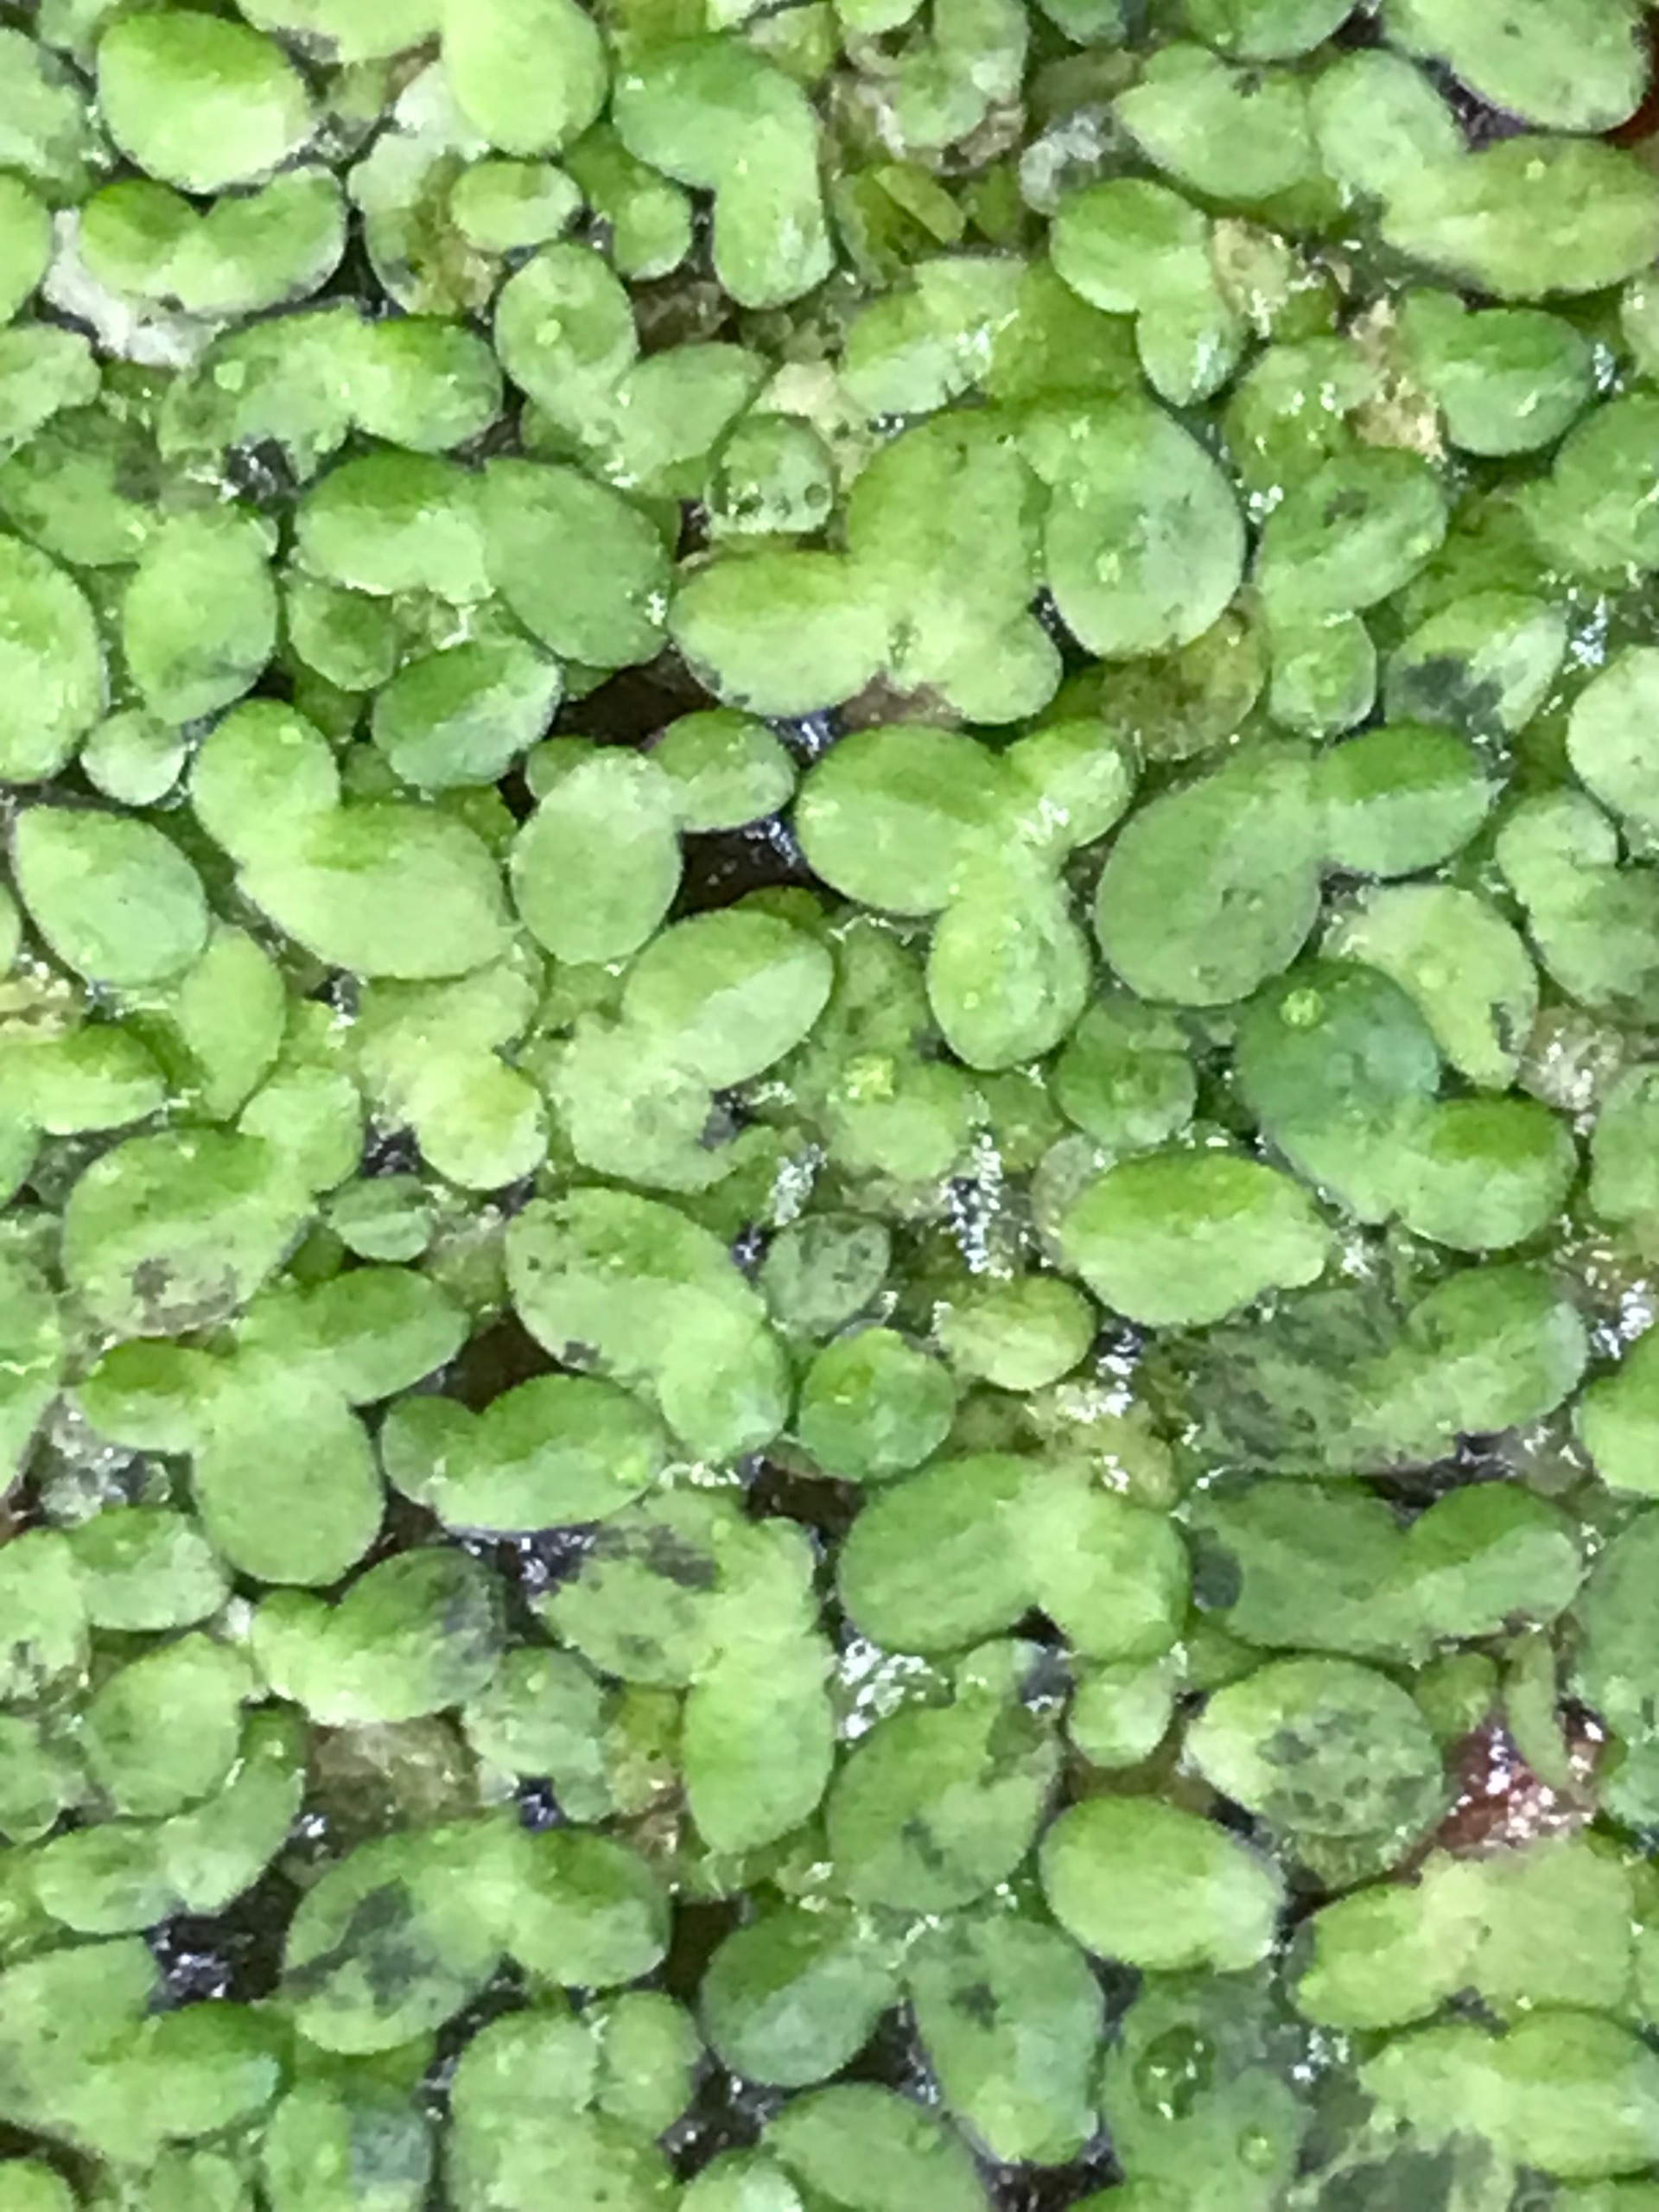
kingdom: Plantae
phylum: Tracheophyta
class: Liliopsida
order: Alismatales
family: Araceae
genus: Lemna
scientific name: Lemna minor
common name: Liden andemad
